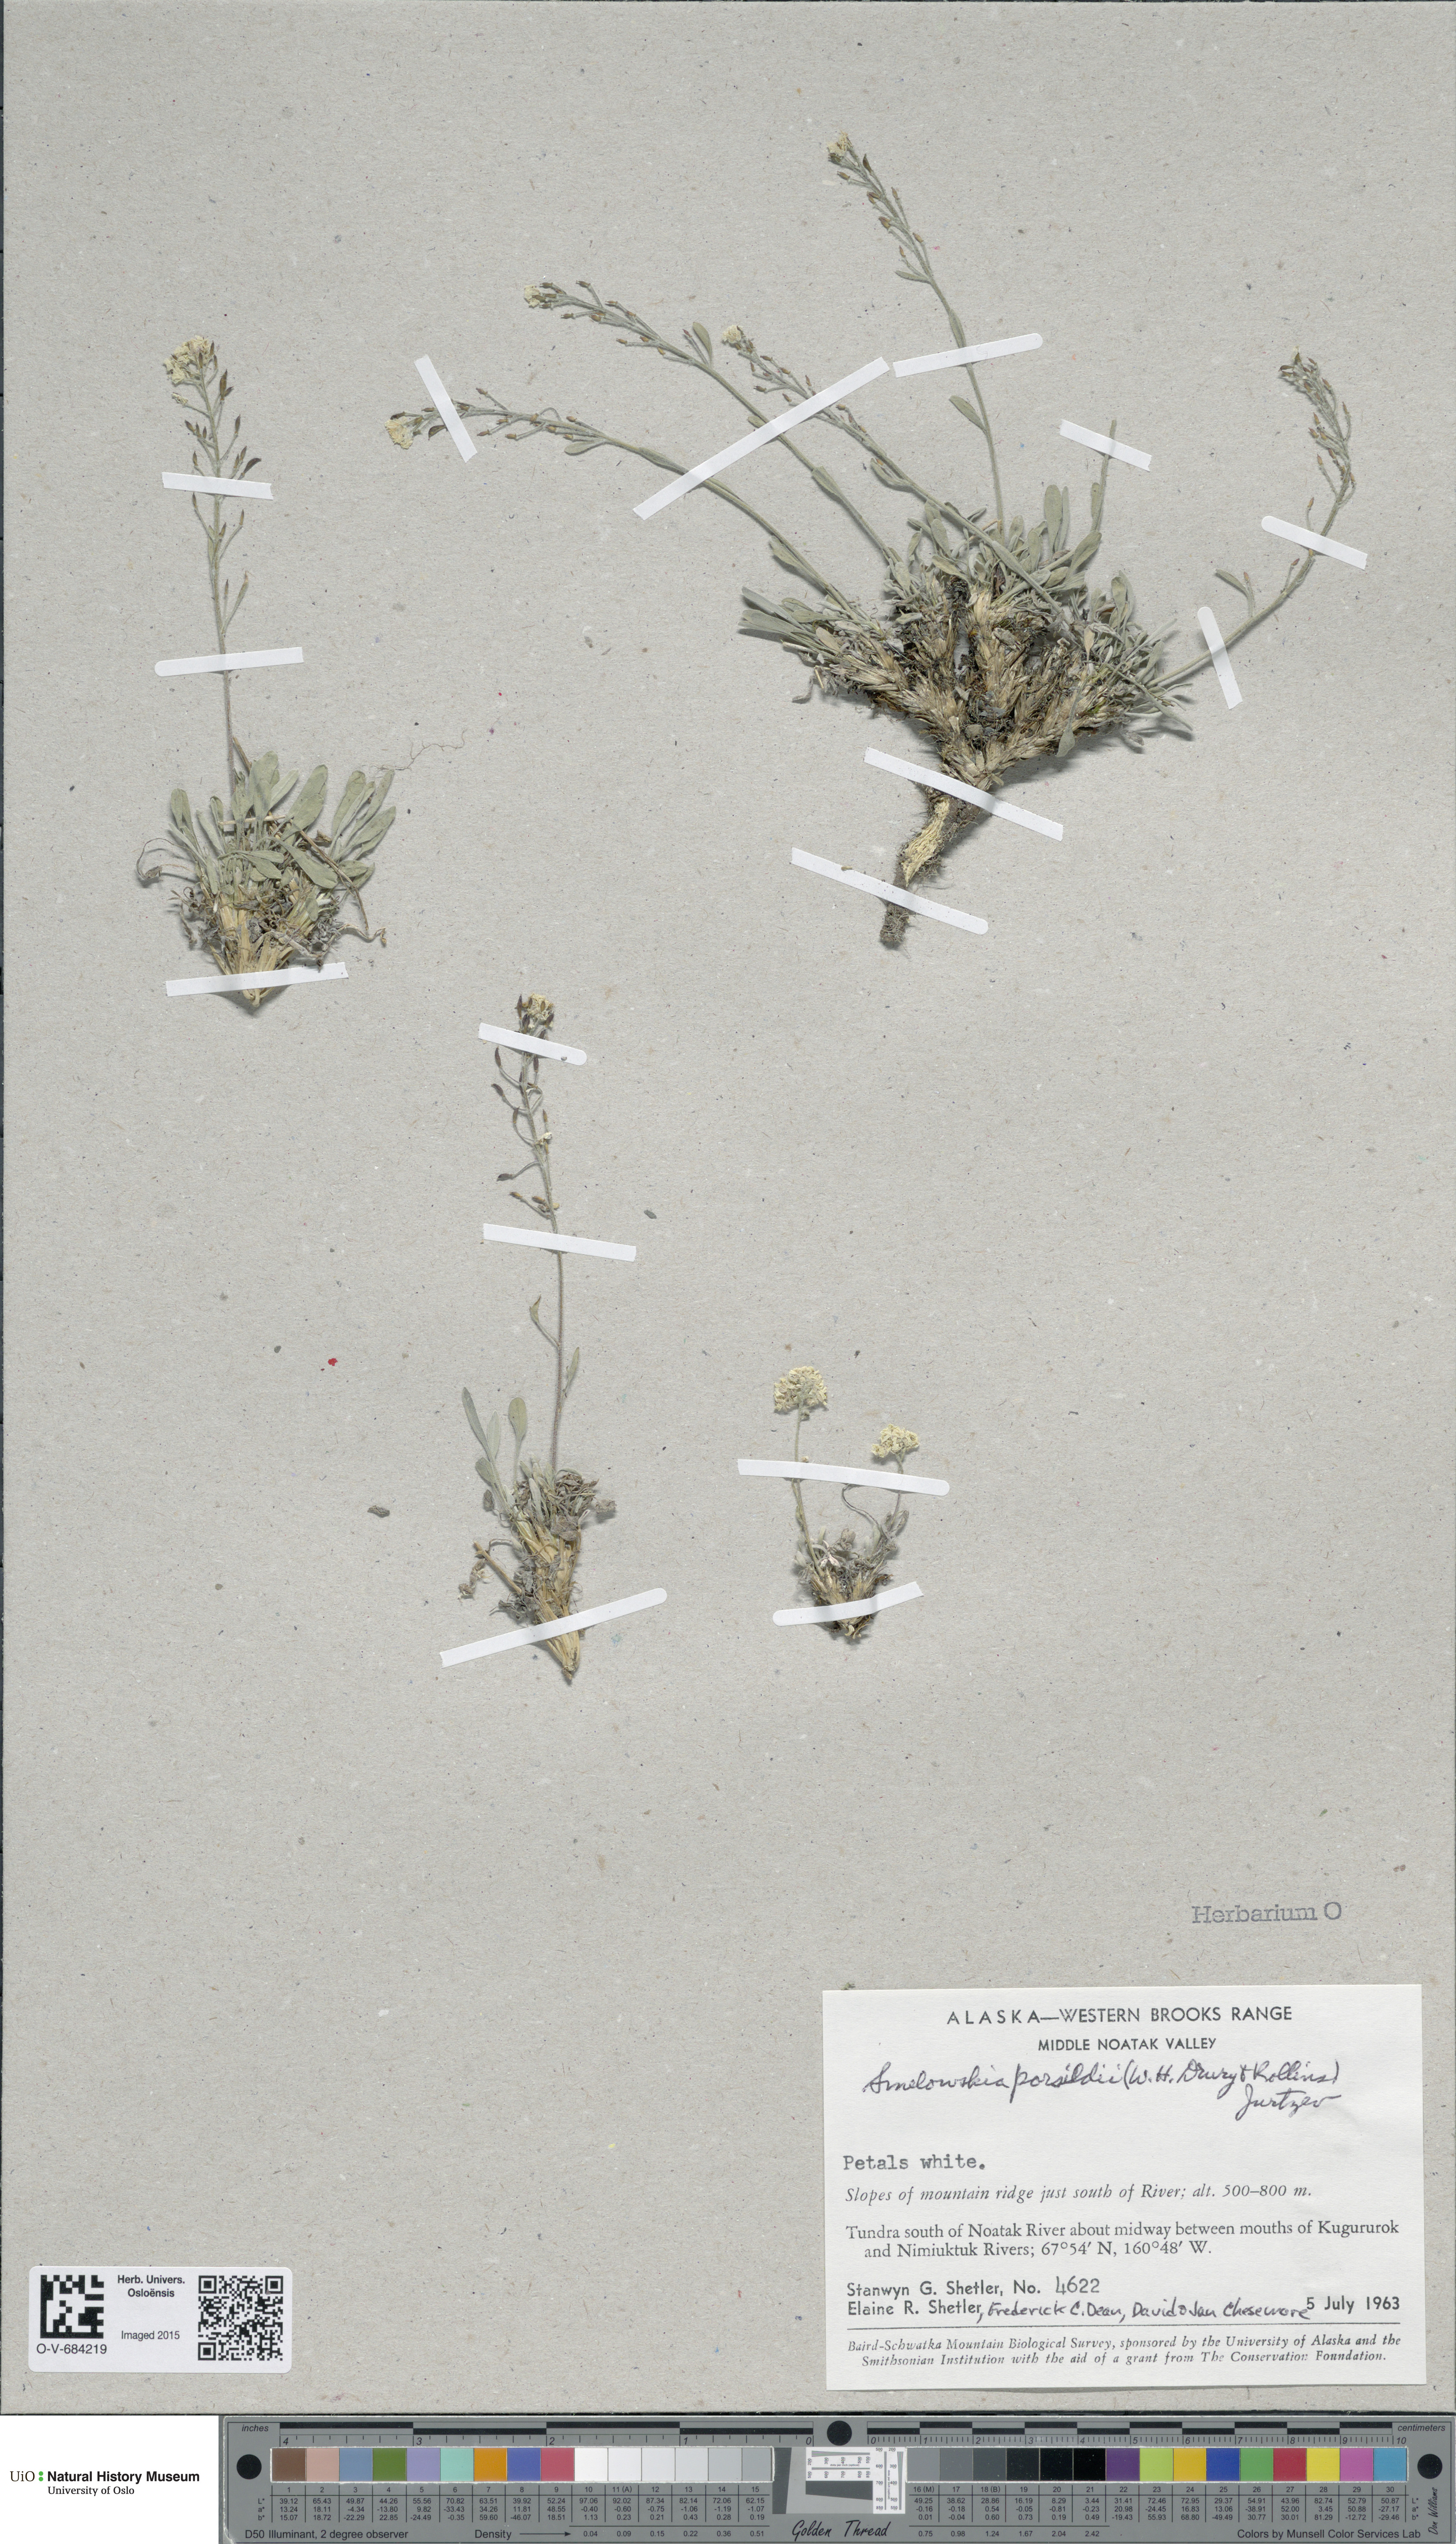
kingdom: Plantae
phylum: Tracheophyta
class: Magnoliopsida
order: Brassicales
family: Brassicaceae
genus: Smelowskia
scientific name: Smelowskia porsildii
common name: Jurtzev's smelowskia
